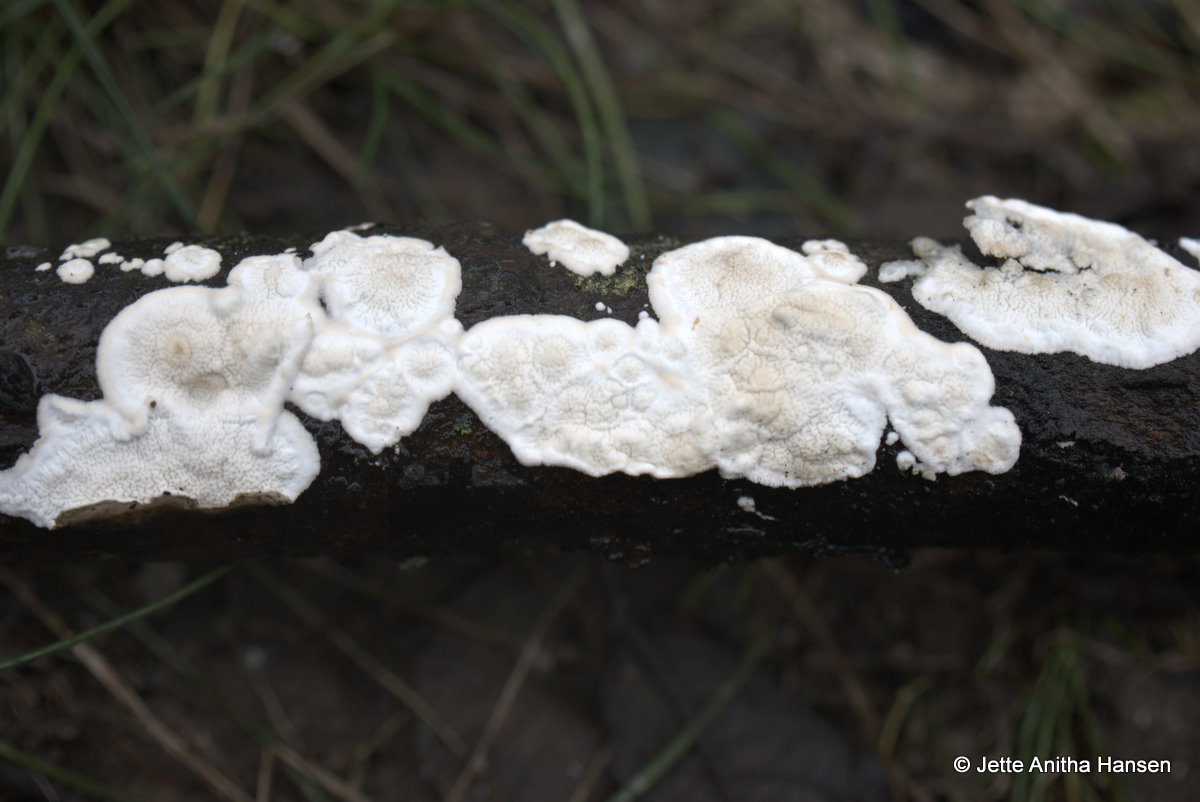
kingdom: Fungi
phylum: Basidiomycota
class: Agaricomycetes
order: Polyporales
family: Irpicaceae
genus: Byssomerulius
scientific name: Byssomerulius corium
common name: læder-åresvamp
